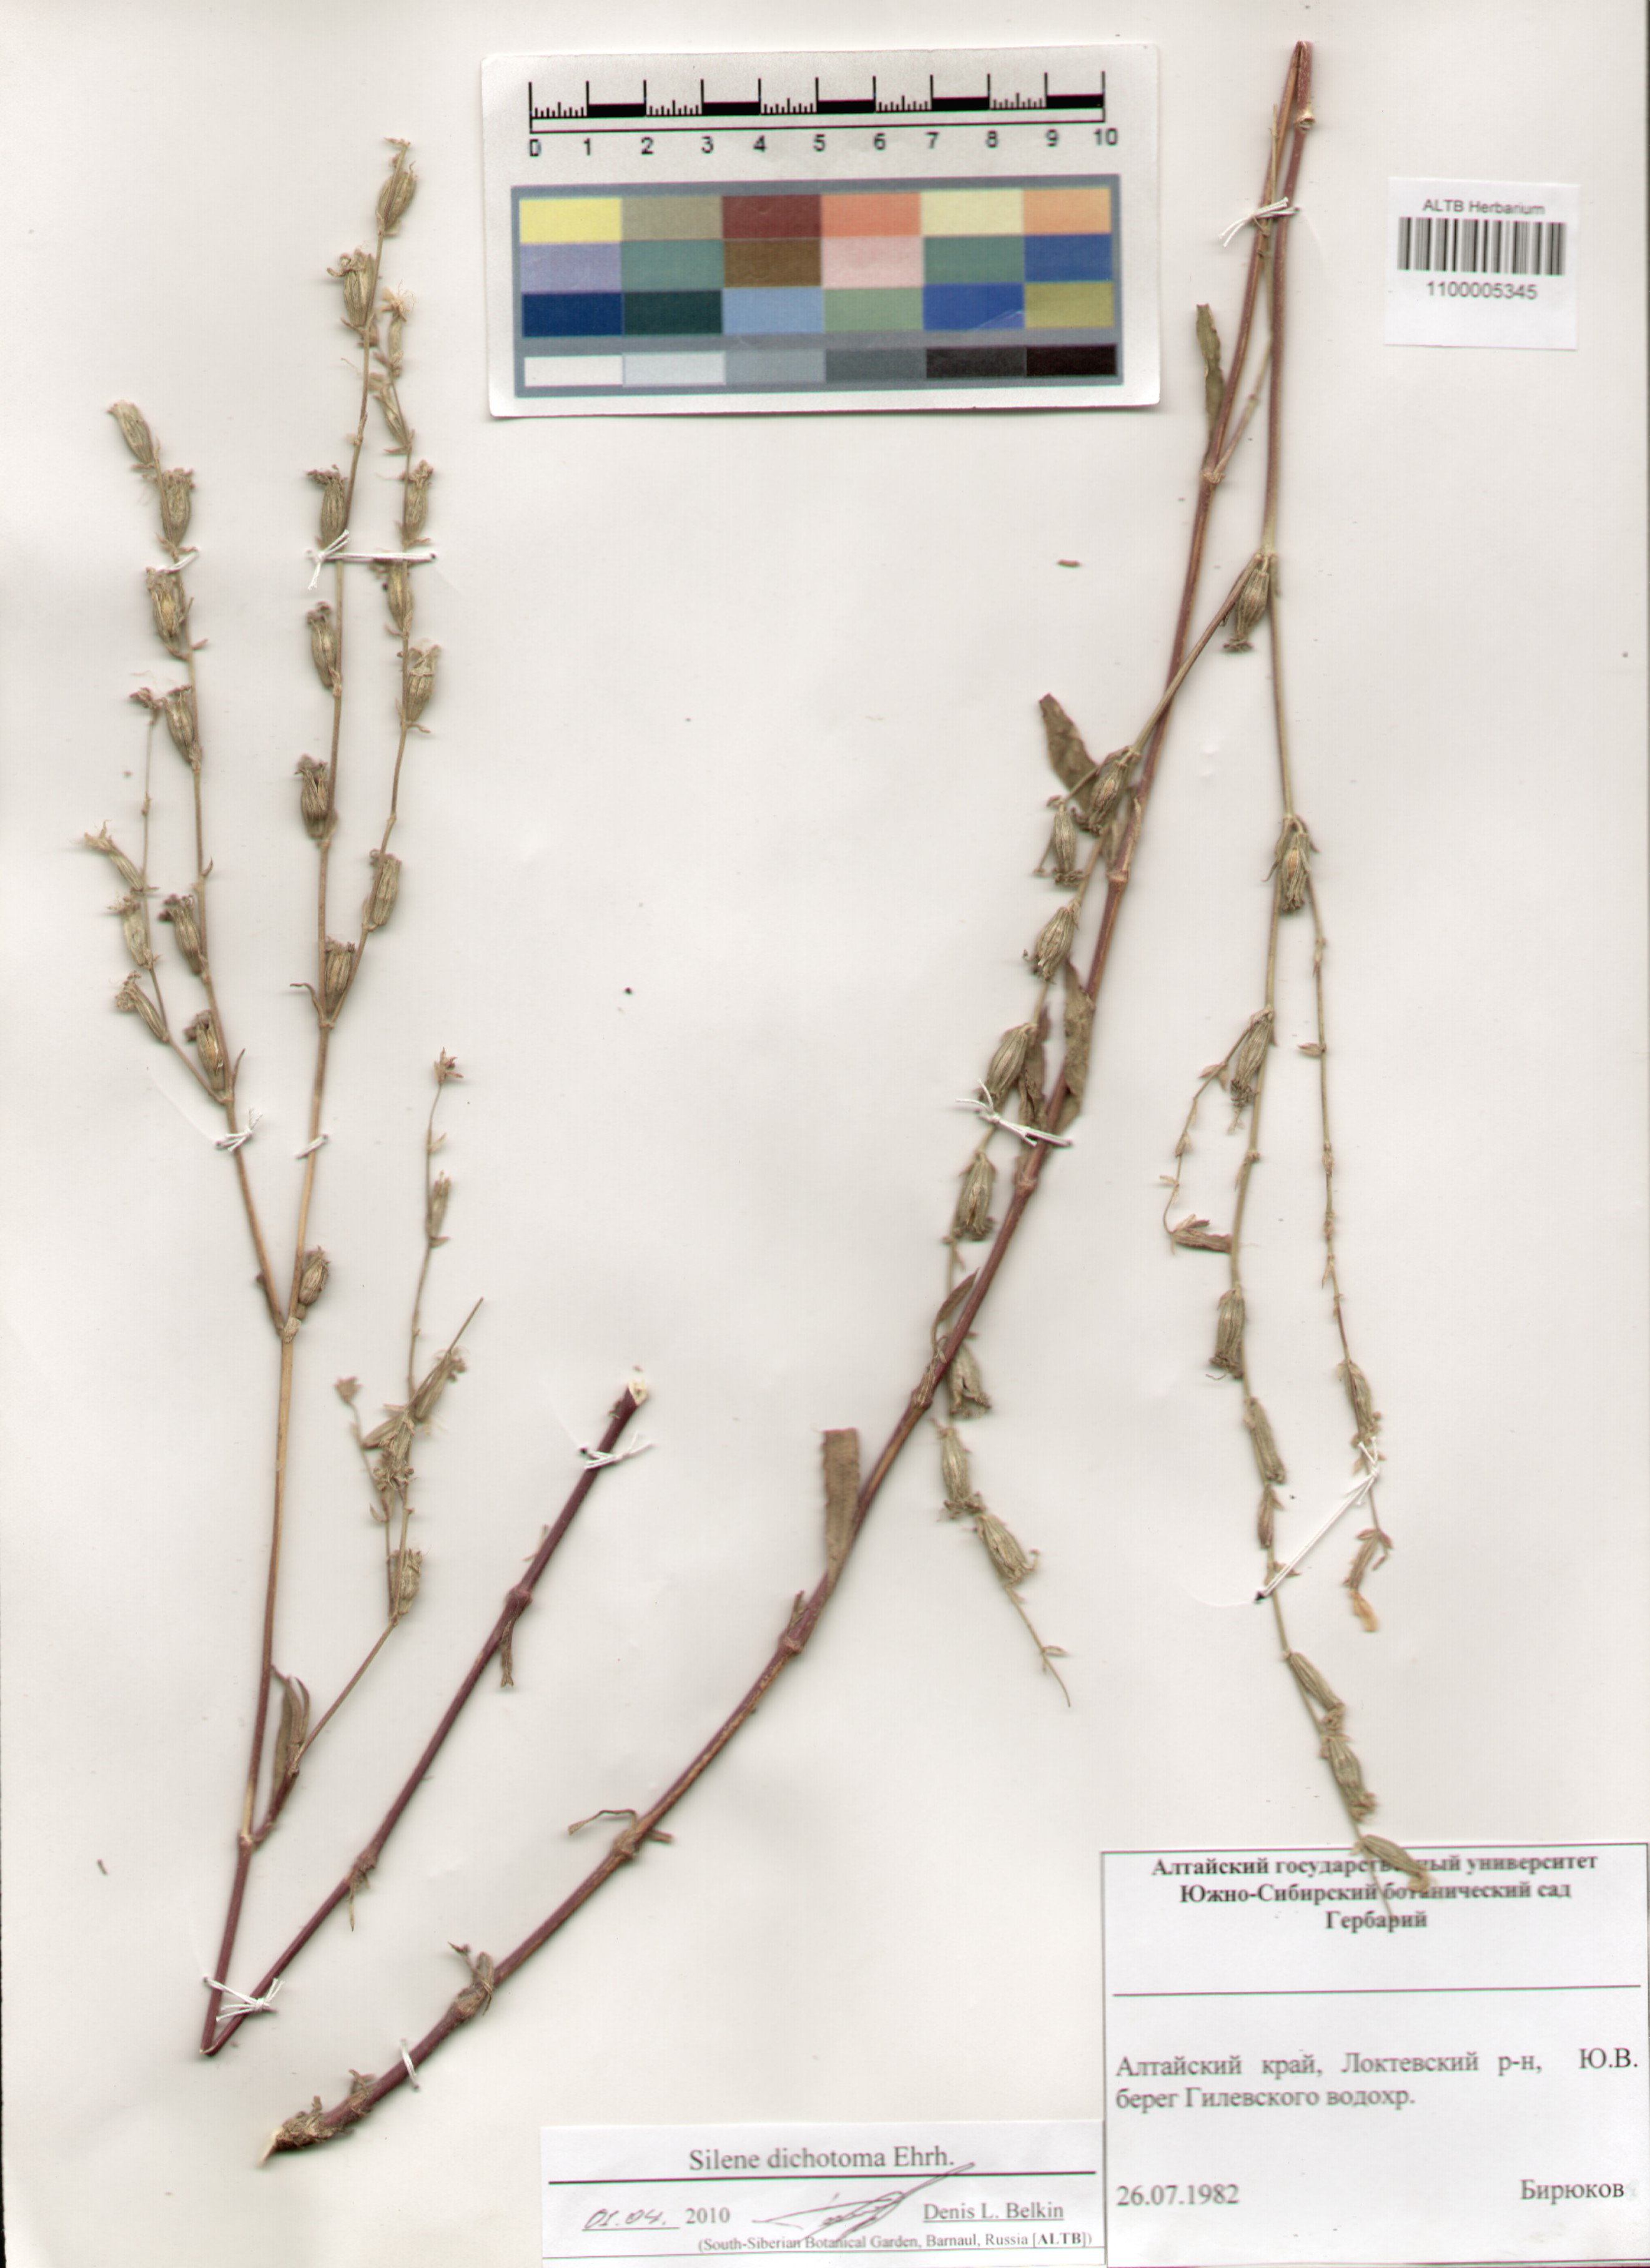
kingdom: Plantae
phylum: Tracheophyta
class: Magnoliopsida
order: Caryophyllales
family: Caryophyllaceae
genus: Silene
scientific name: Silene dichotoma
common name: Forked catchfly
